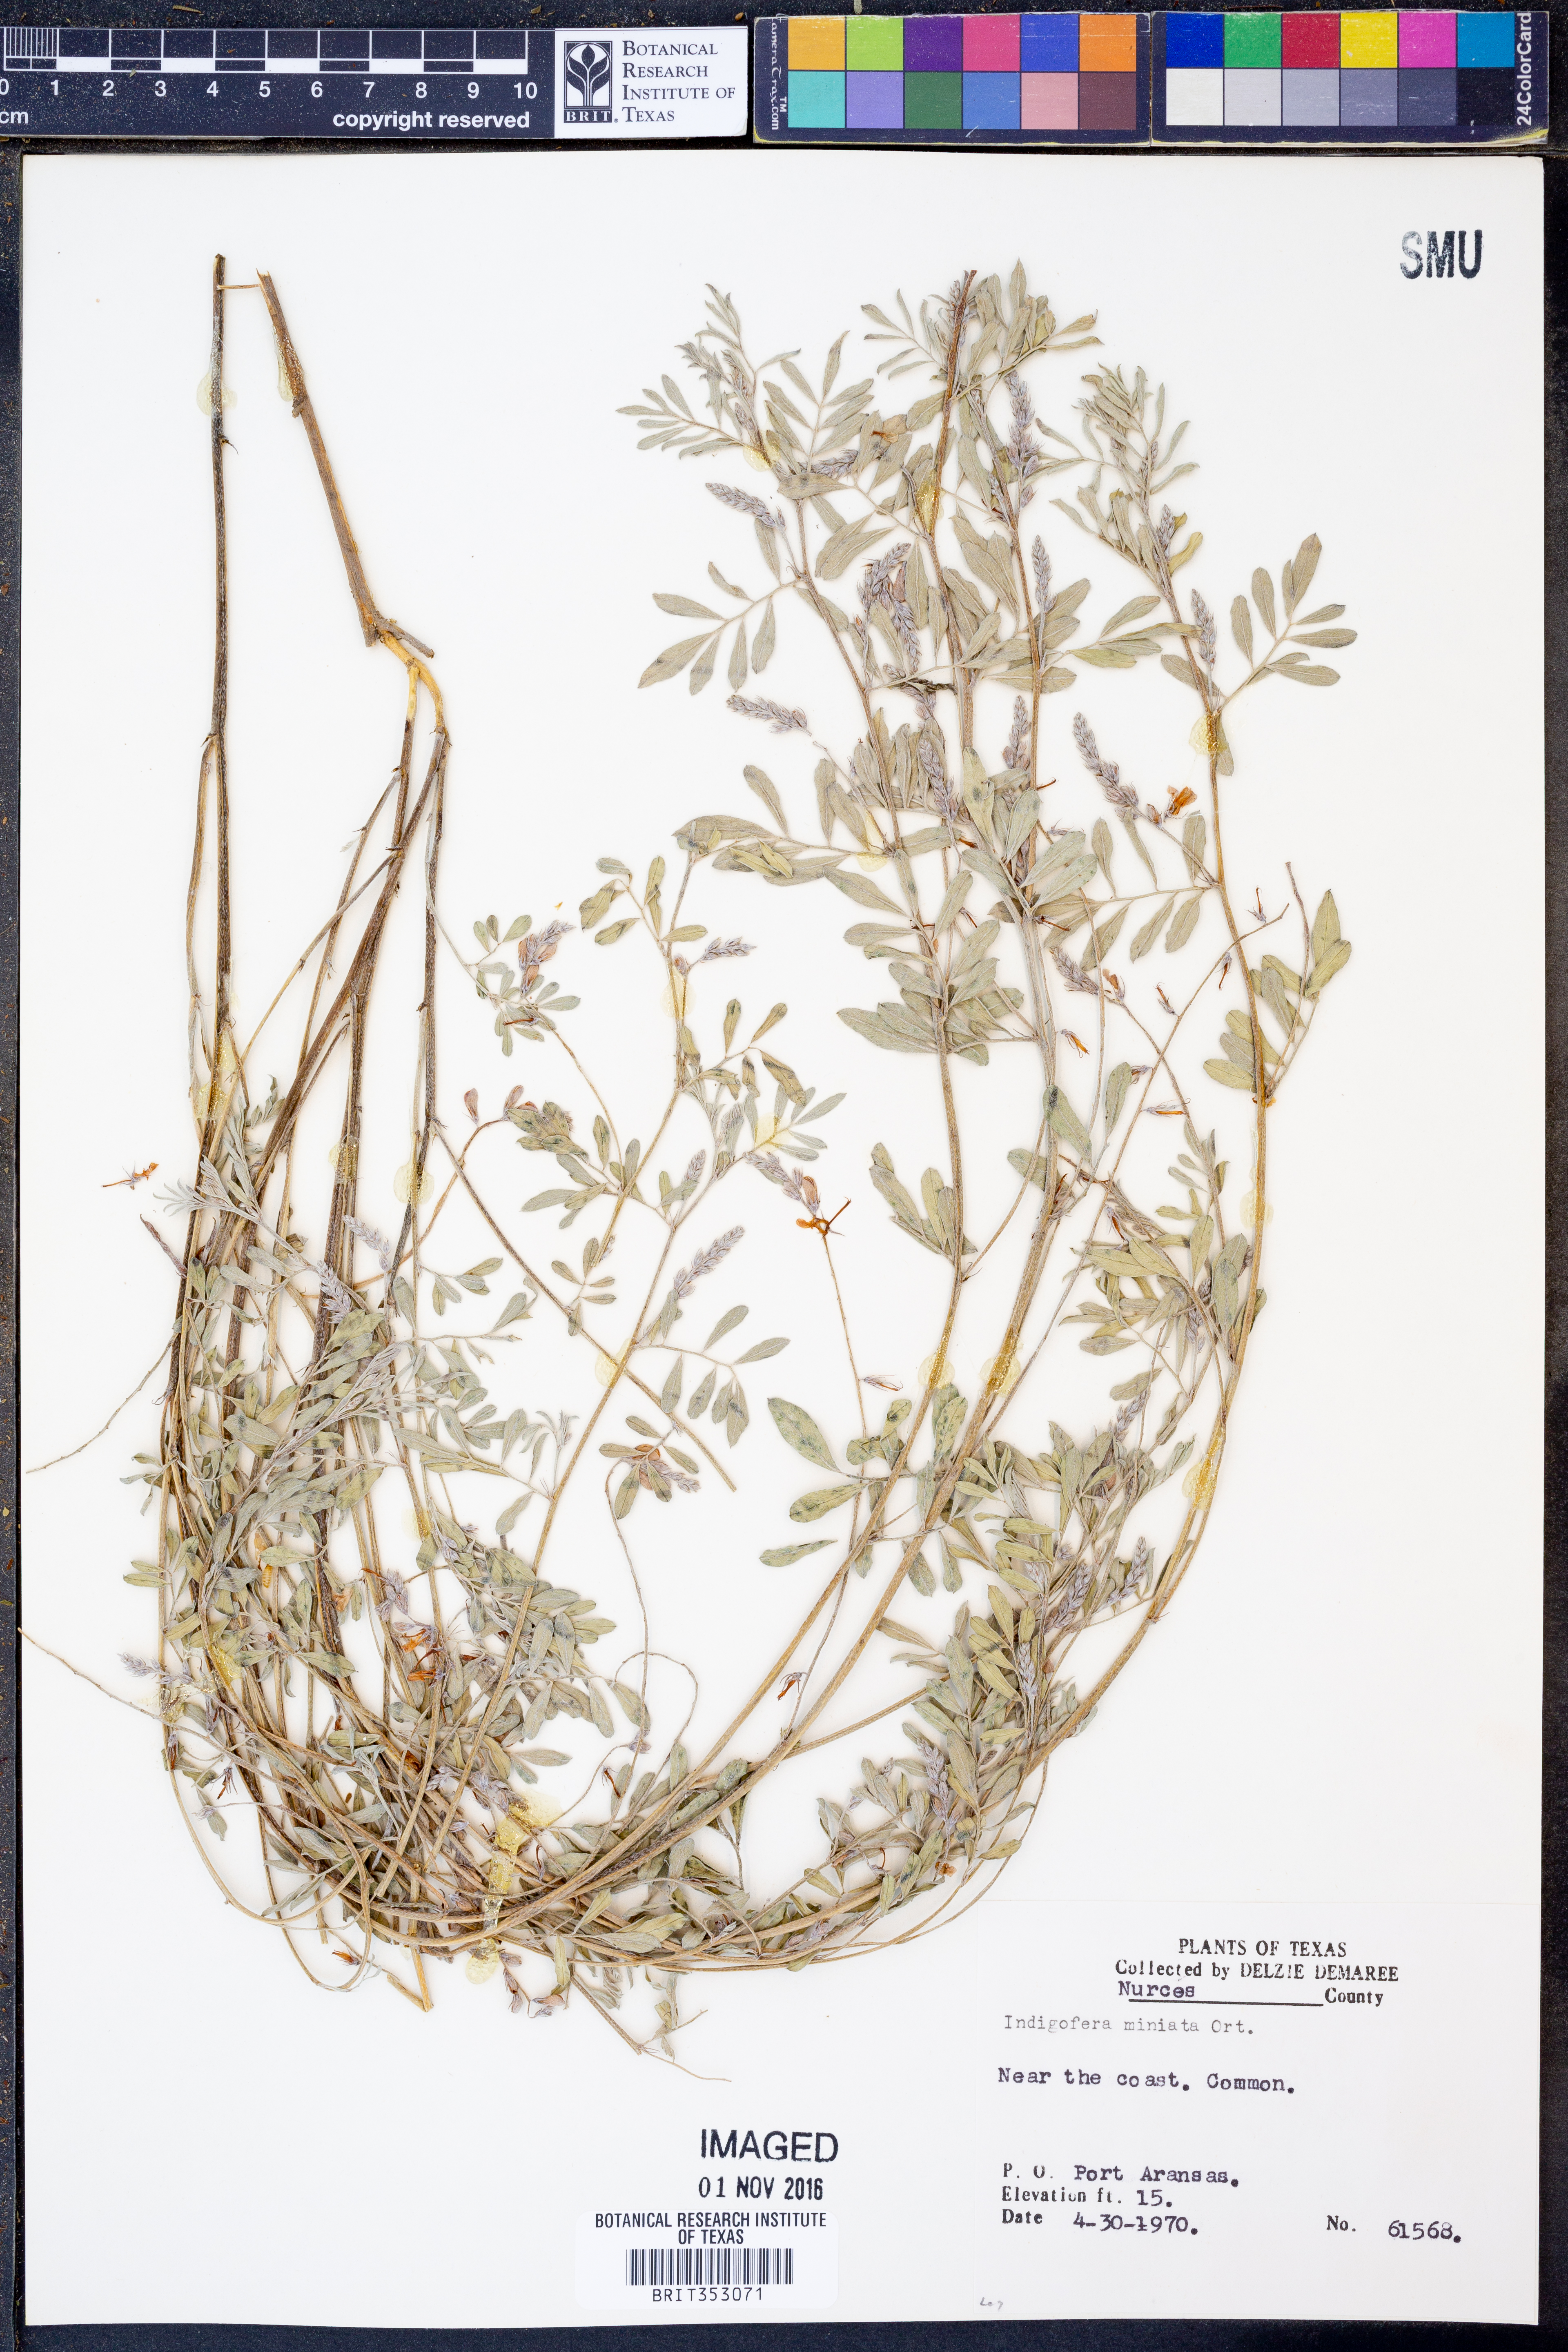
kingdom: Plantae
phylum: Tracheophyta
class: Magnoliopsida
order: Fabales
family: Fabaceae
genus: Indigofera
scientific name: Indigofera miniata
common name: Coast indigo
